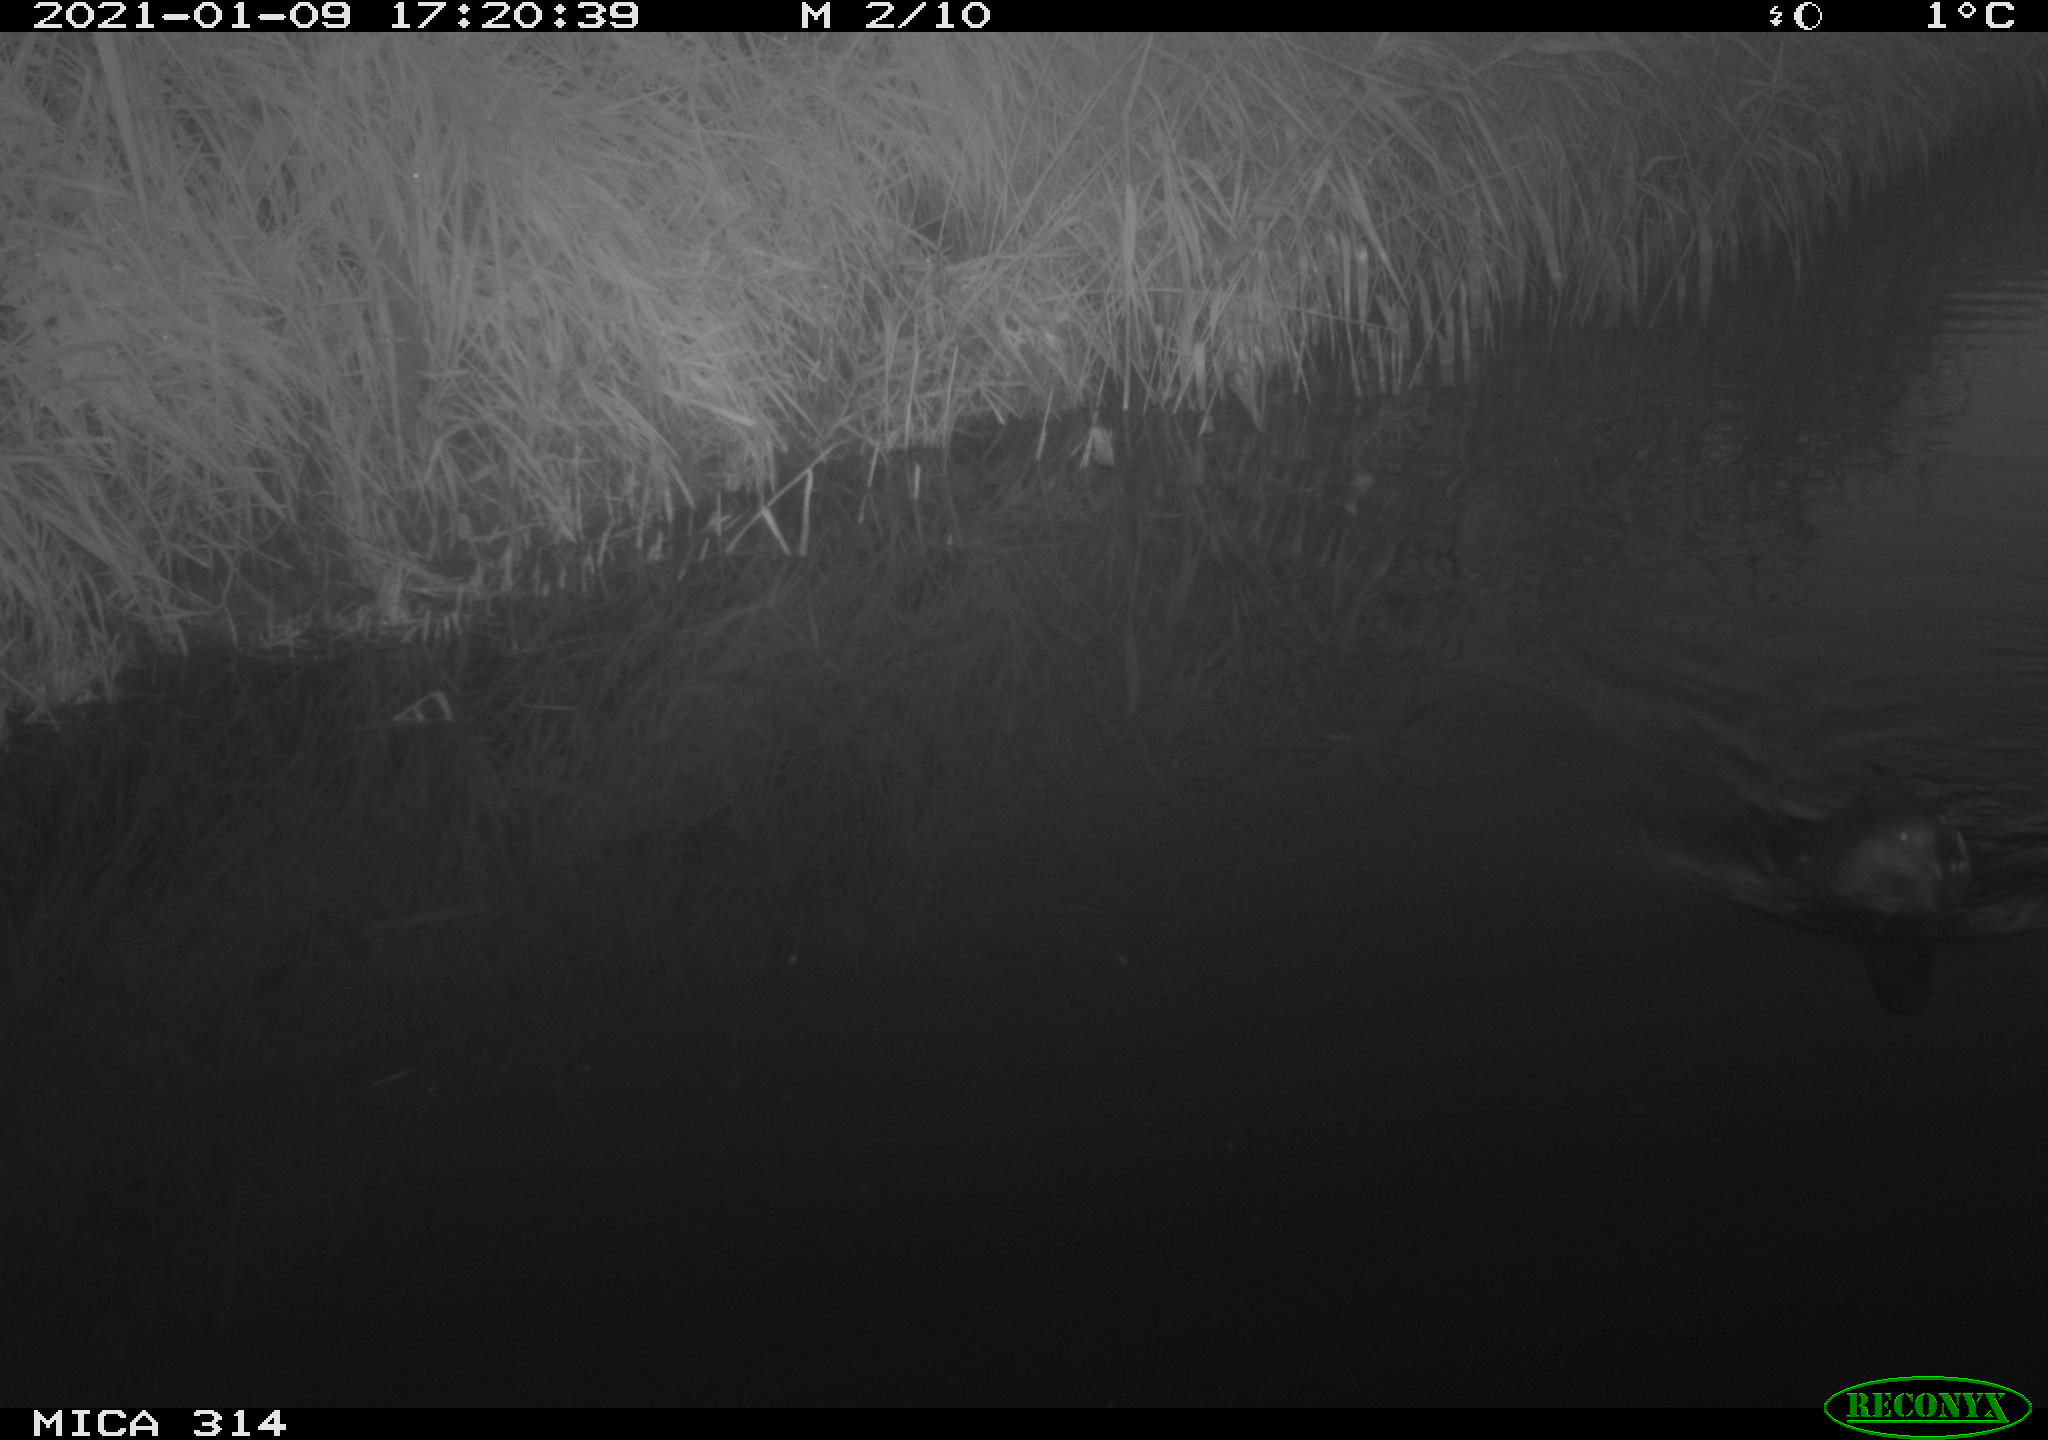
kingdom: Animalia
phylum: Chordata
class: Aves
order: Gruiformes
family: Rallidae
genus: Gallinula
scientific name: Gallinula chloropus
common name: Common moorhen
